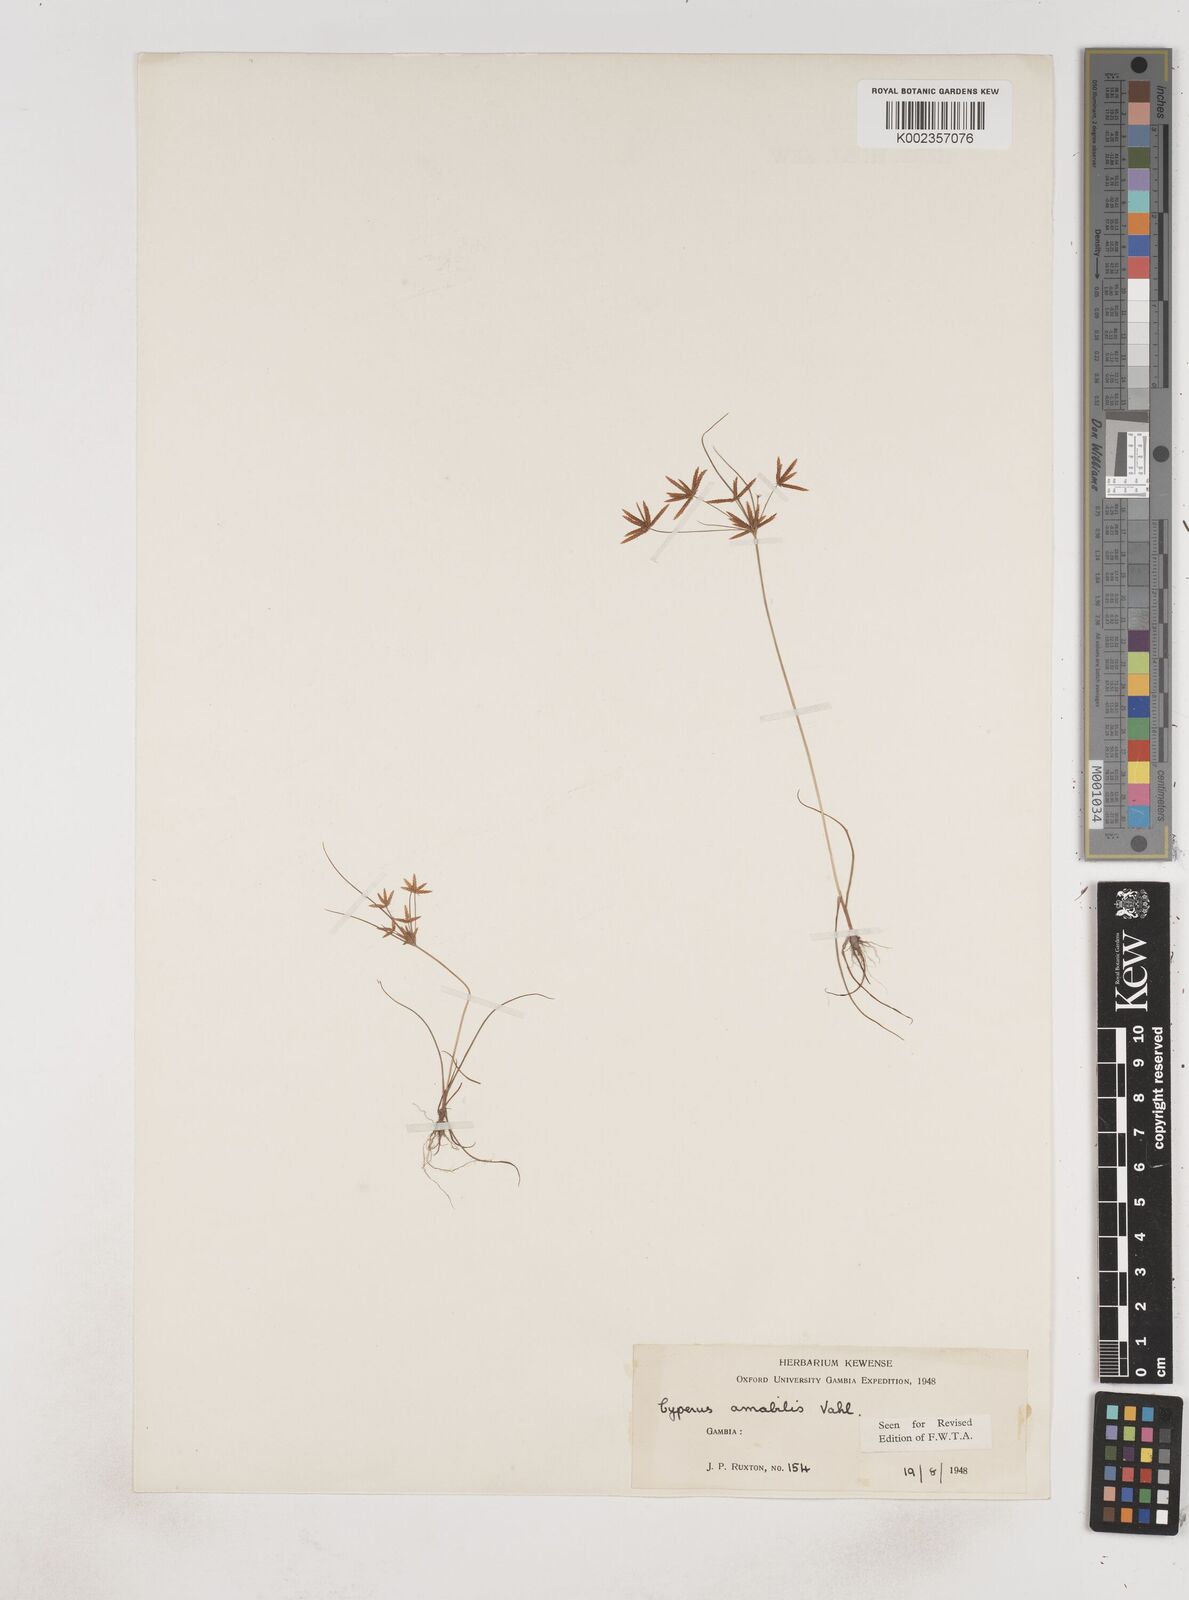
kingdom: Plantae
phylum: Tracheophyta
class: Liliopsida
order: Poales
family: Cyperaceae
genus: Cyperus
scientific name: Cyperus amabilis
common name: Foothill flat sedge
